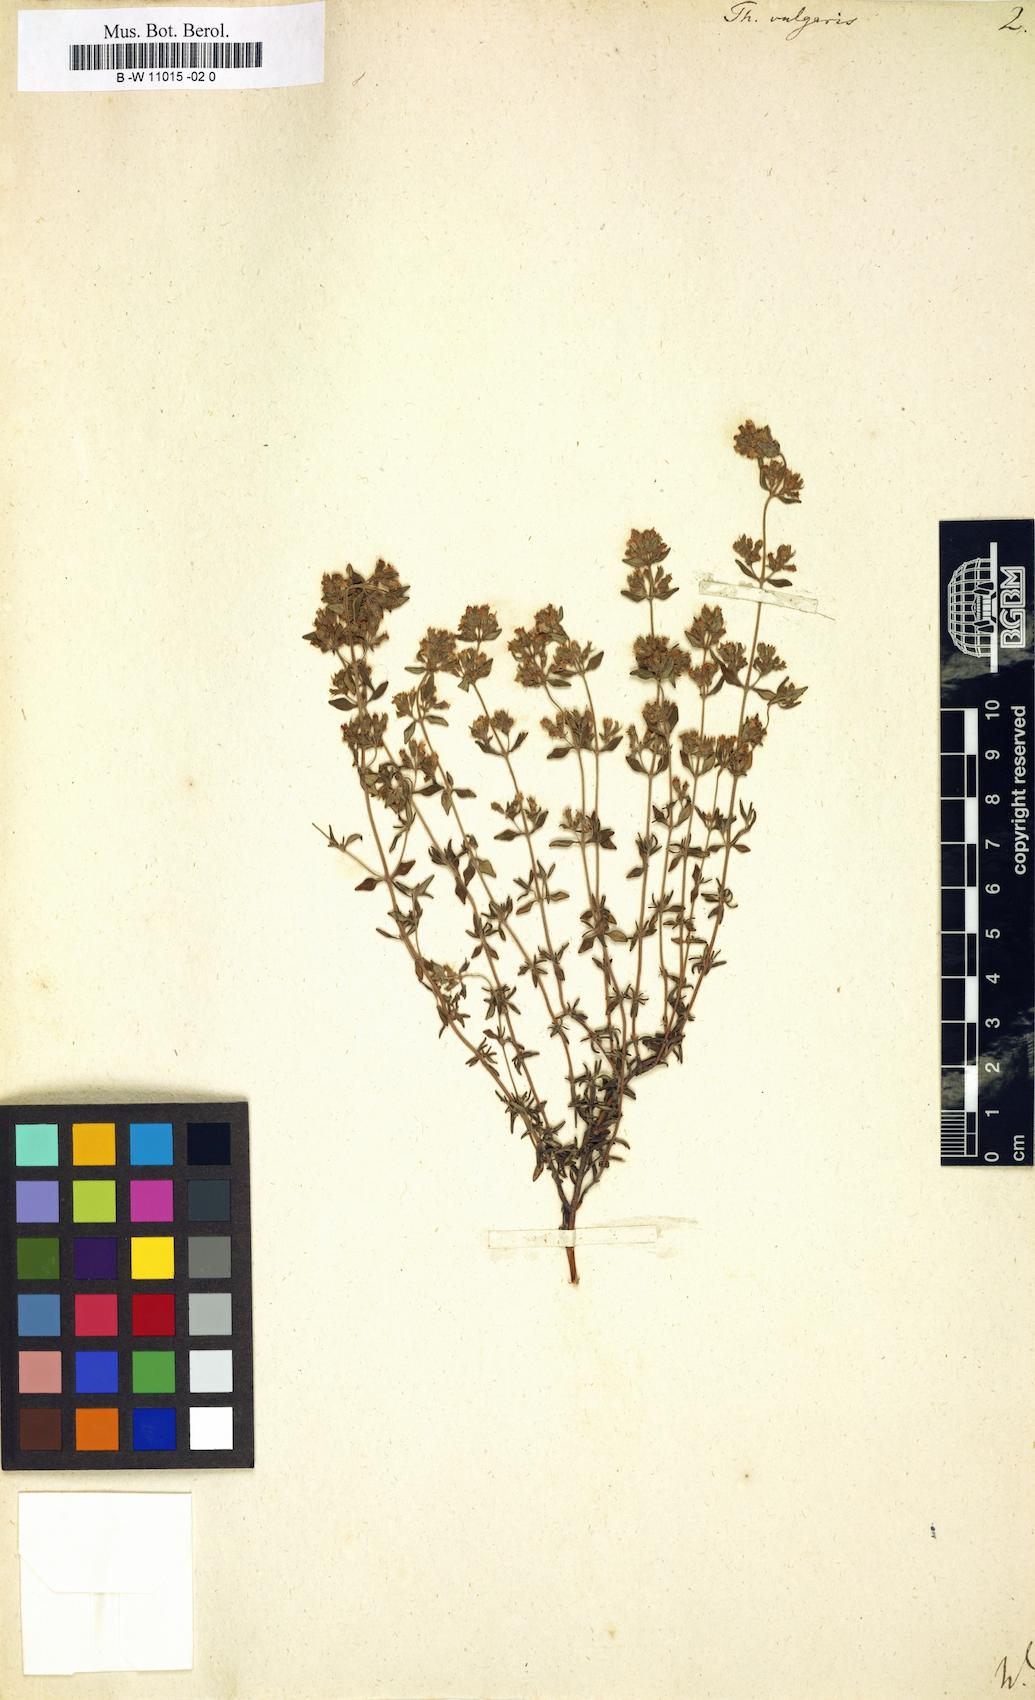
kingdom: Plantae
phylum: Tracheophyta
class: Magnoliopsida
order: Lamiales
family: Lamiaceae
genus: Thymus
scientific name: Thymus vulgaris
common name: Garden thyme
